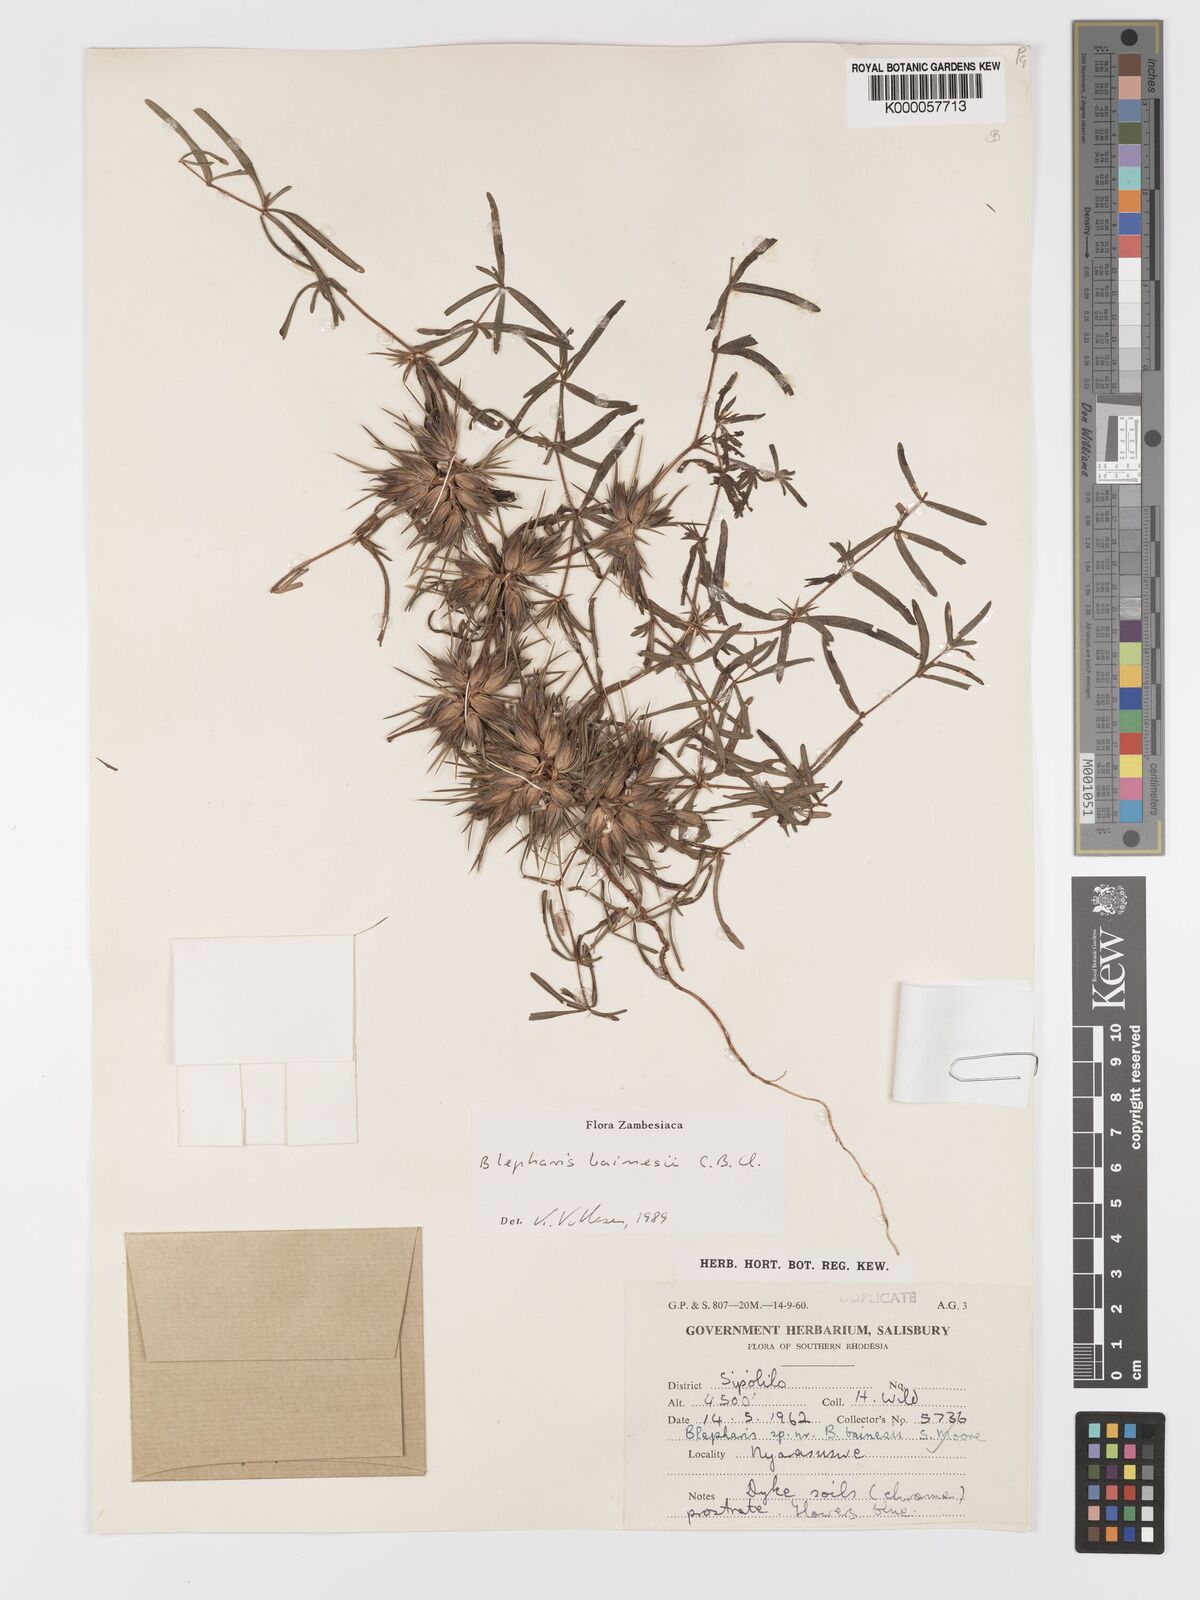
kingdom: Plantae
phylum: Tracheophyta
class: Magnoliopsida
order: Lamiales
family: Acanthaceae
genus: Blepharis
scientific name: Blepharis bainesii
